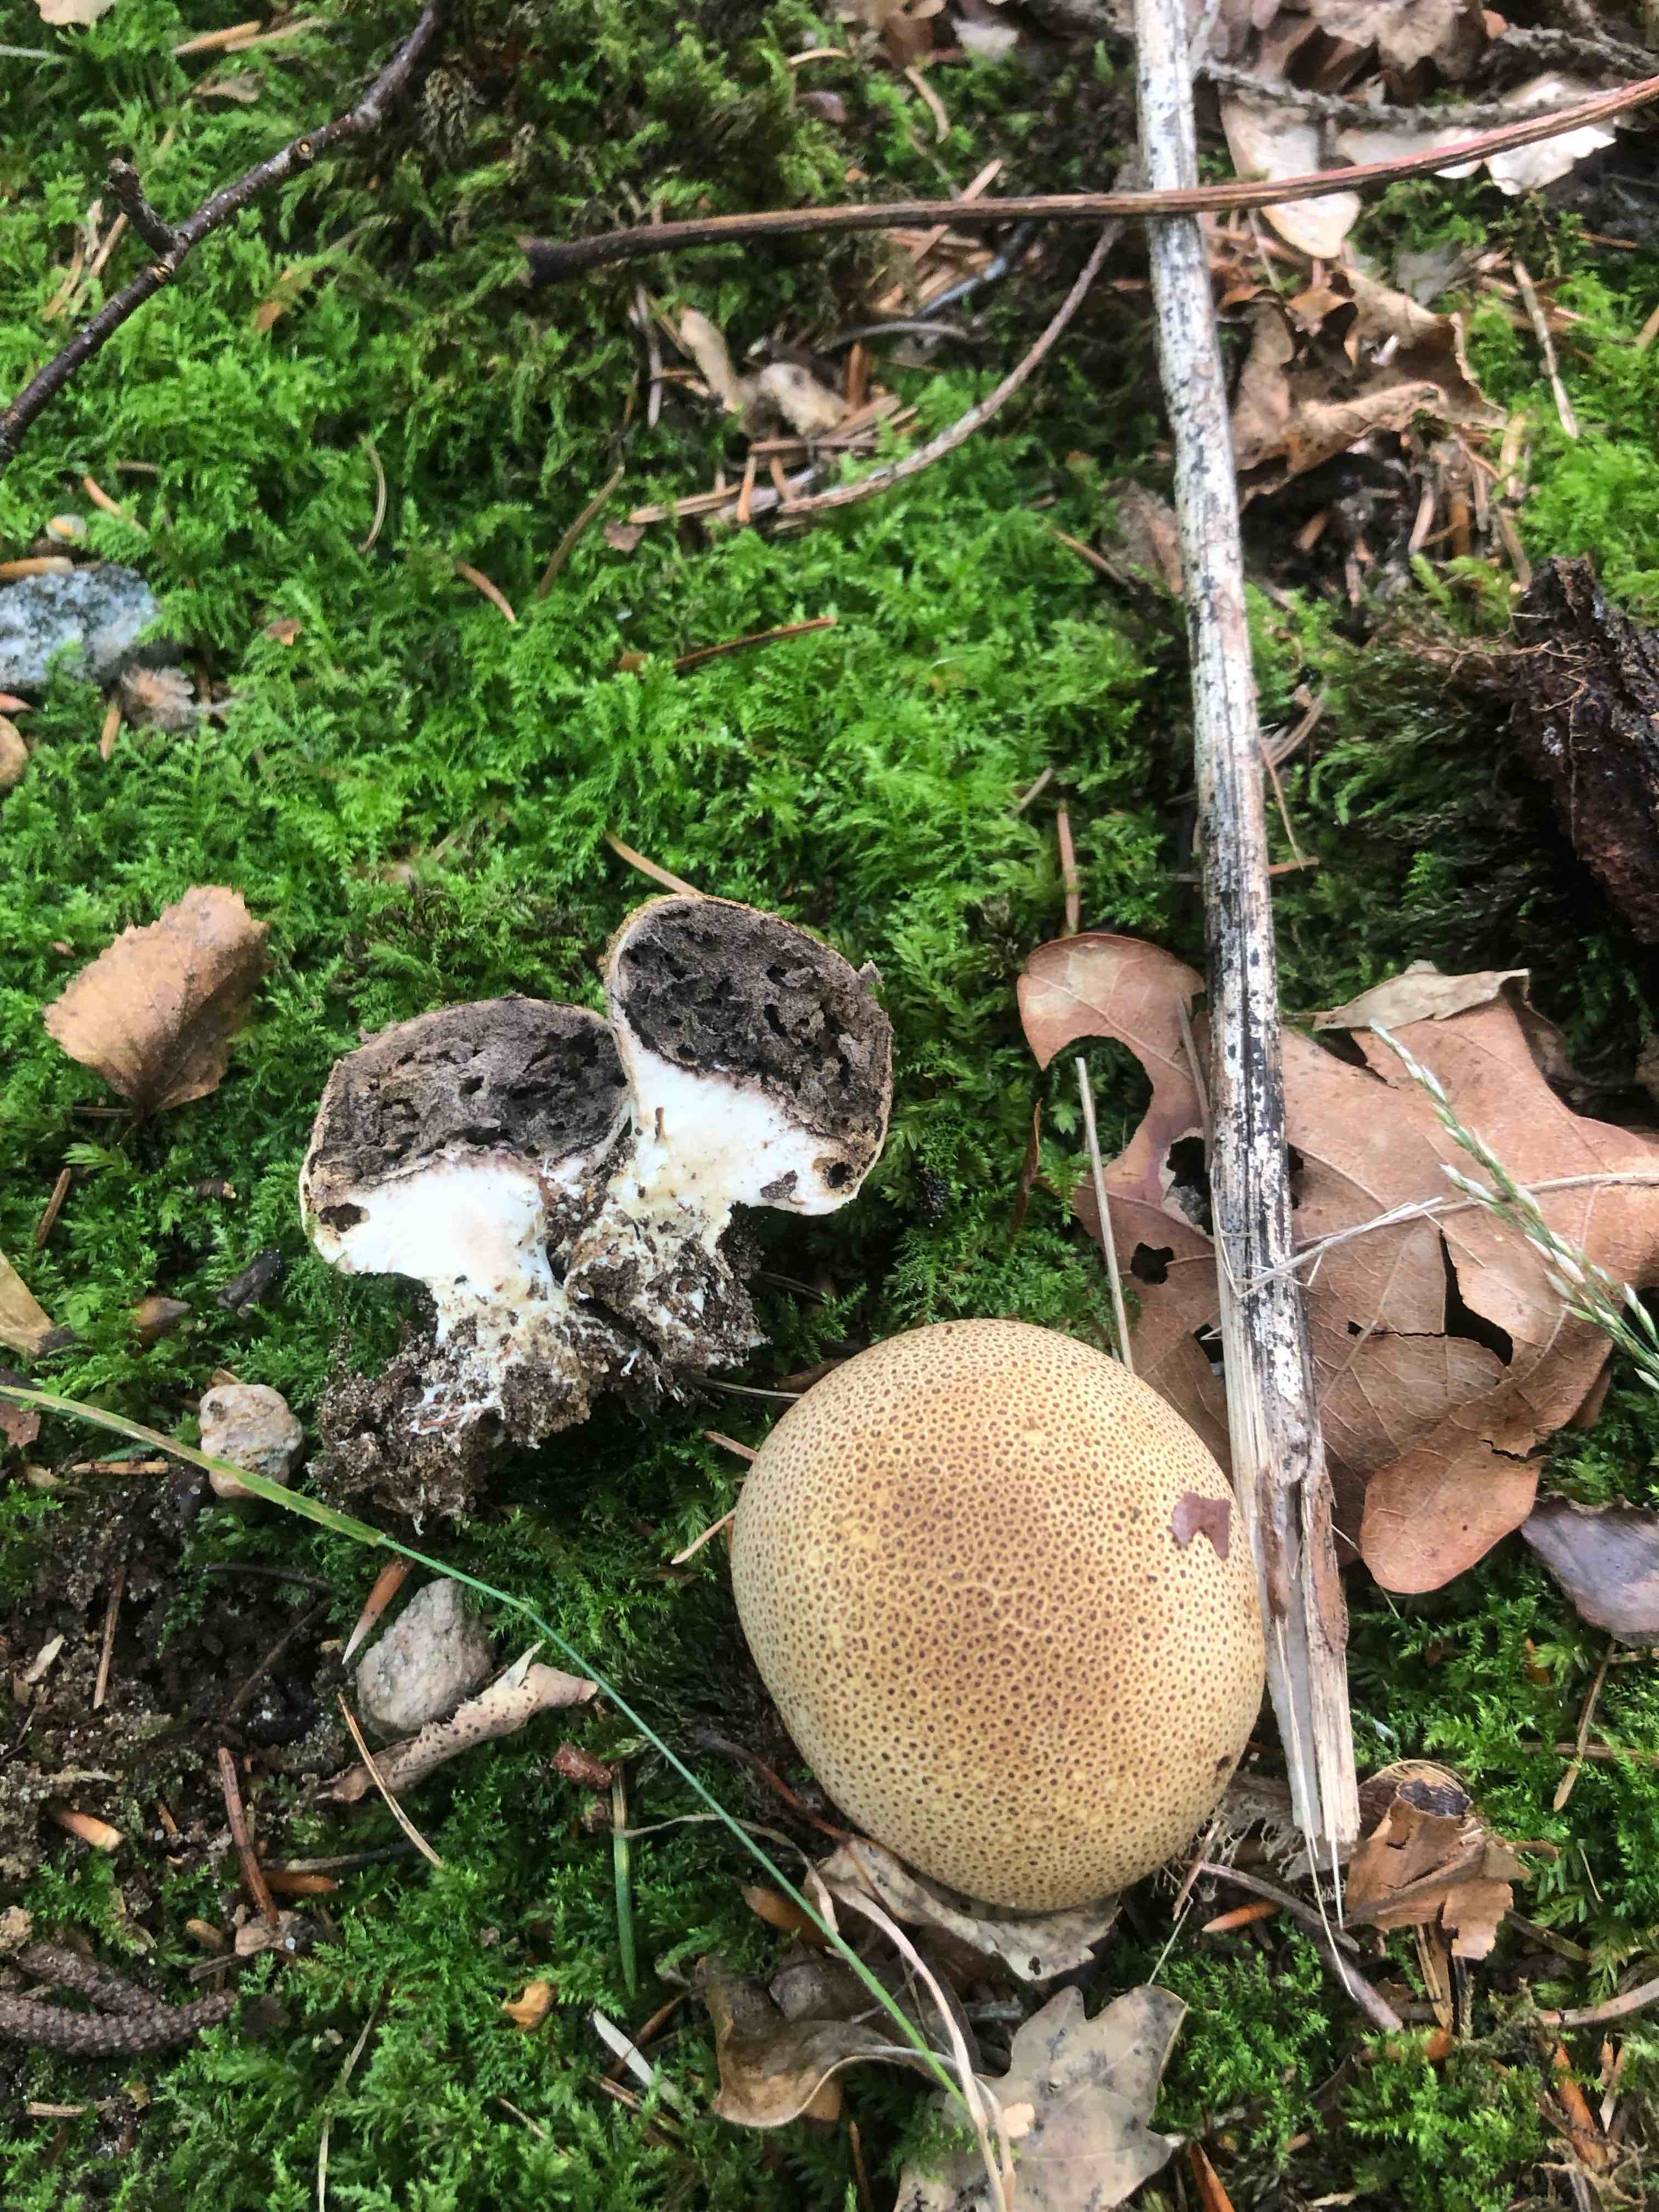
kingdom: Fungi
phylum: Basidiomycota
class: Agaricomycetes
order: Boletales
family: Sclerodermataceae
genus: Scleroderma
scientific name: Scleroderma
